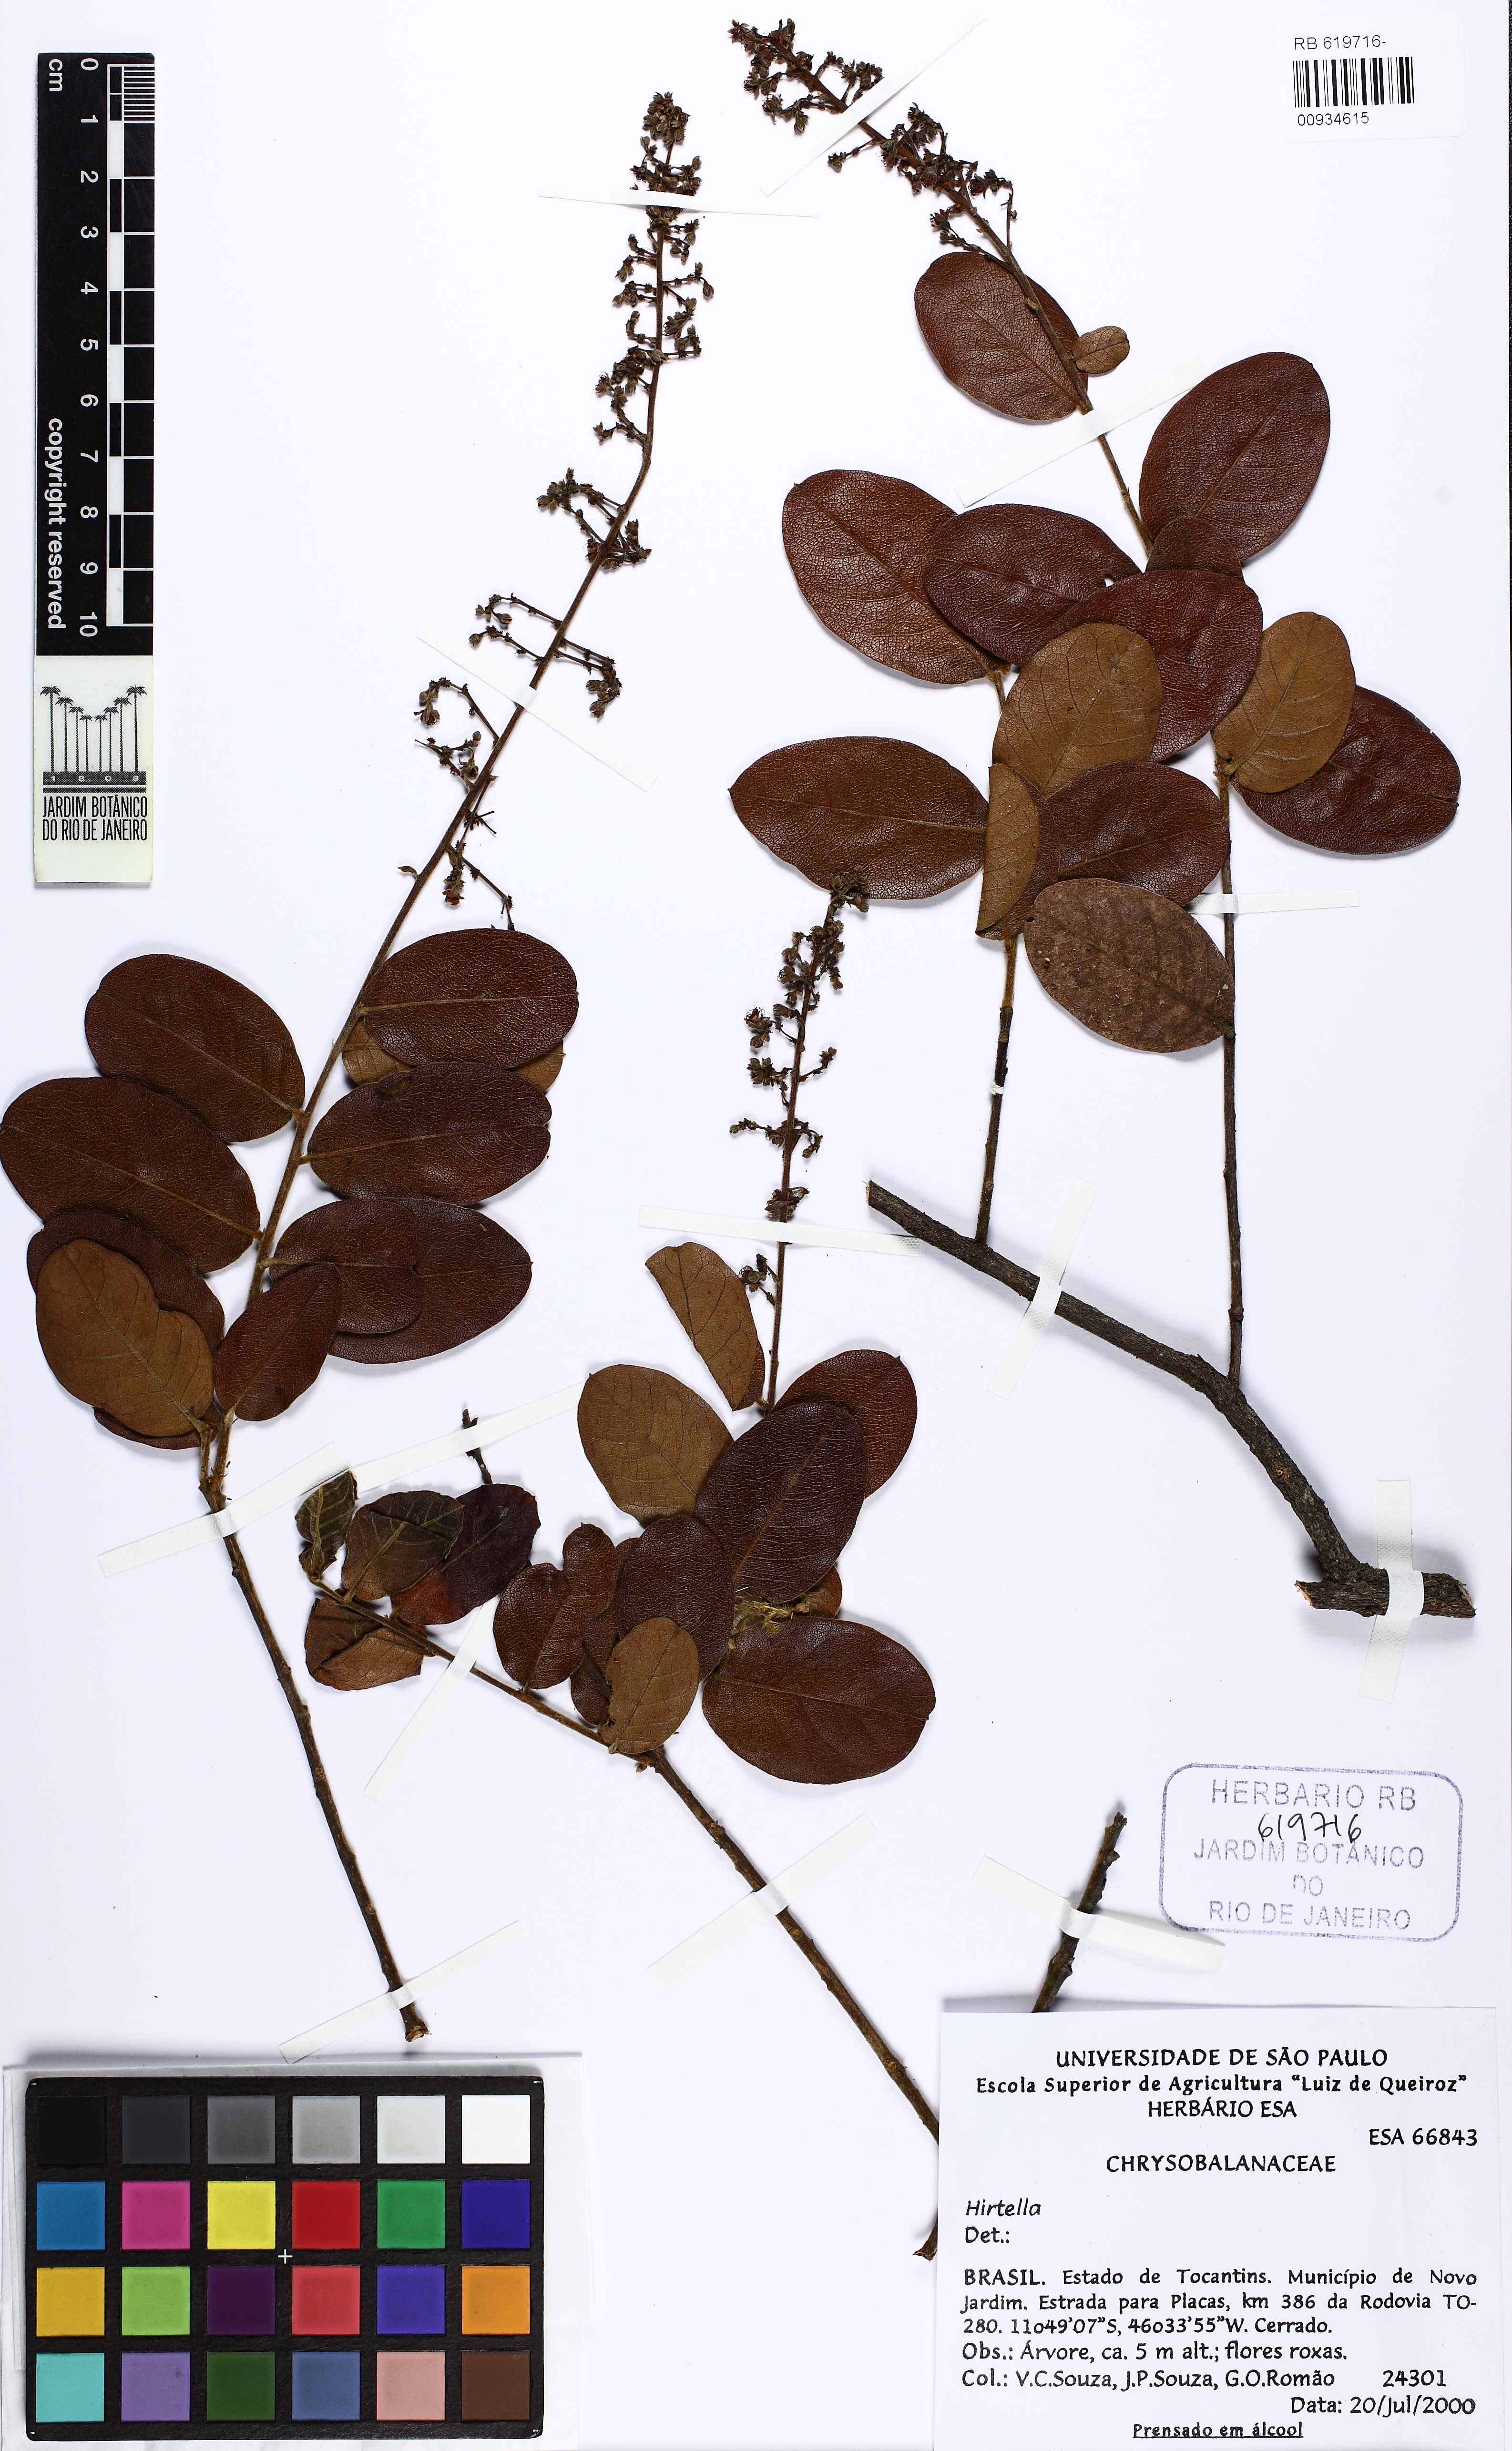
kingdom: Plantae
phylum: Tracheophyta
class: Magnoliopsida
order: Malpighiales
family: Chrysobalanaceae
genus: Hirtella
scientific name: Hirtella ciliata
